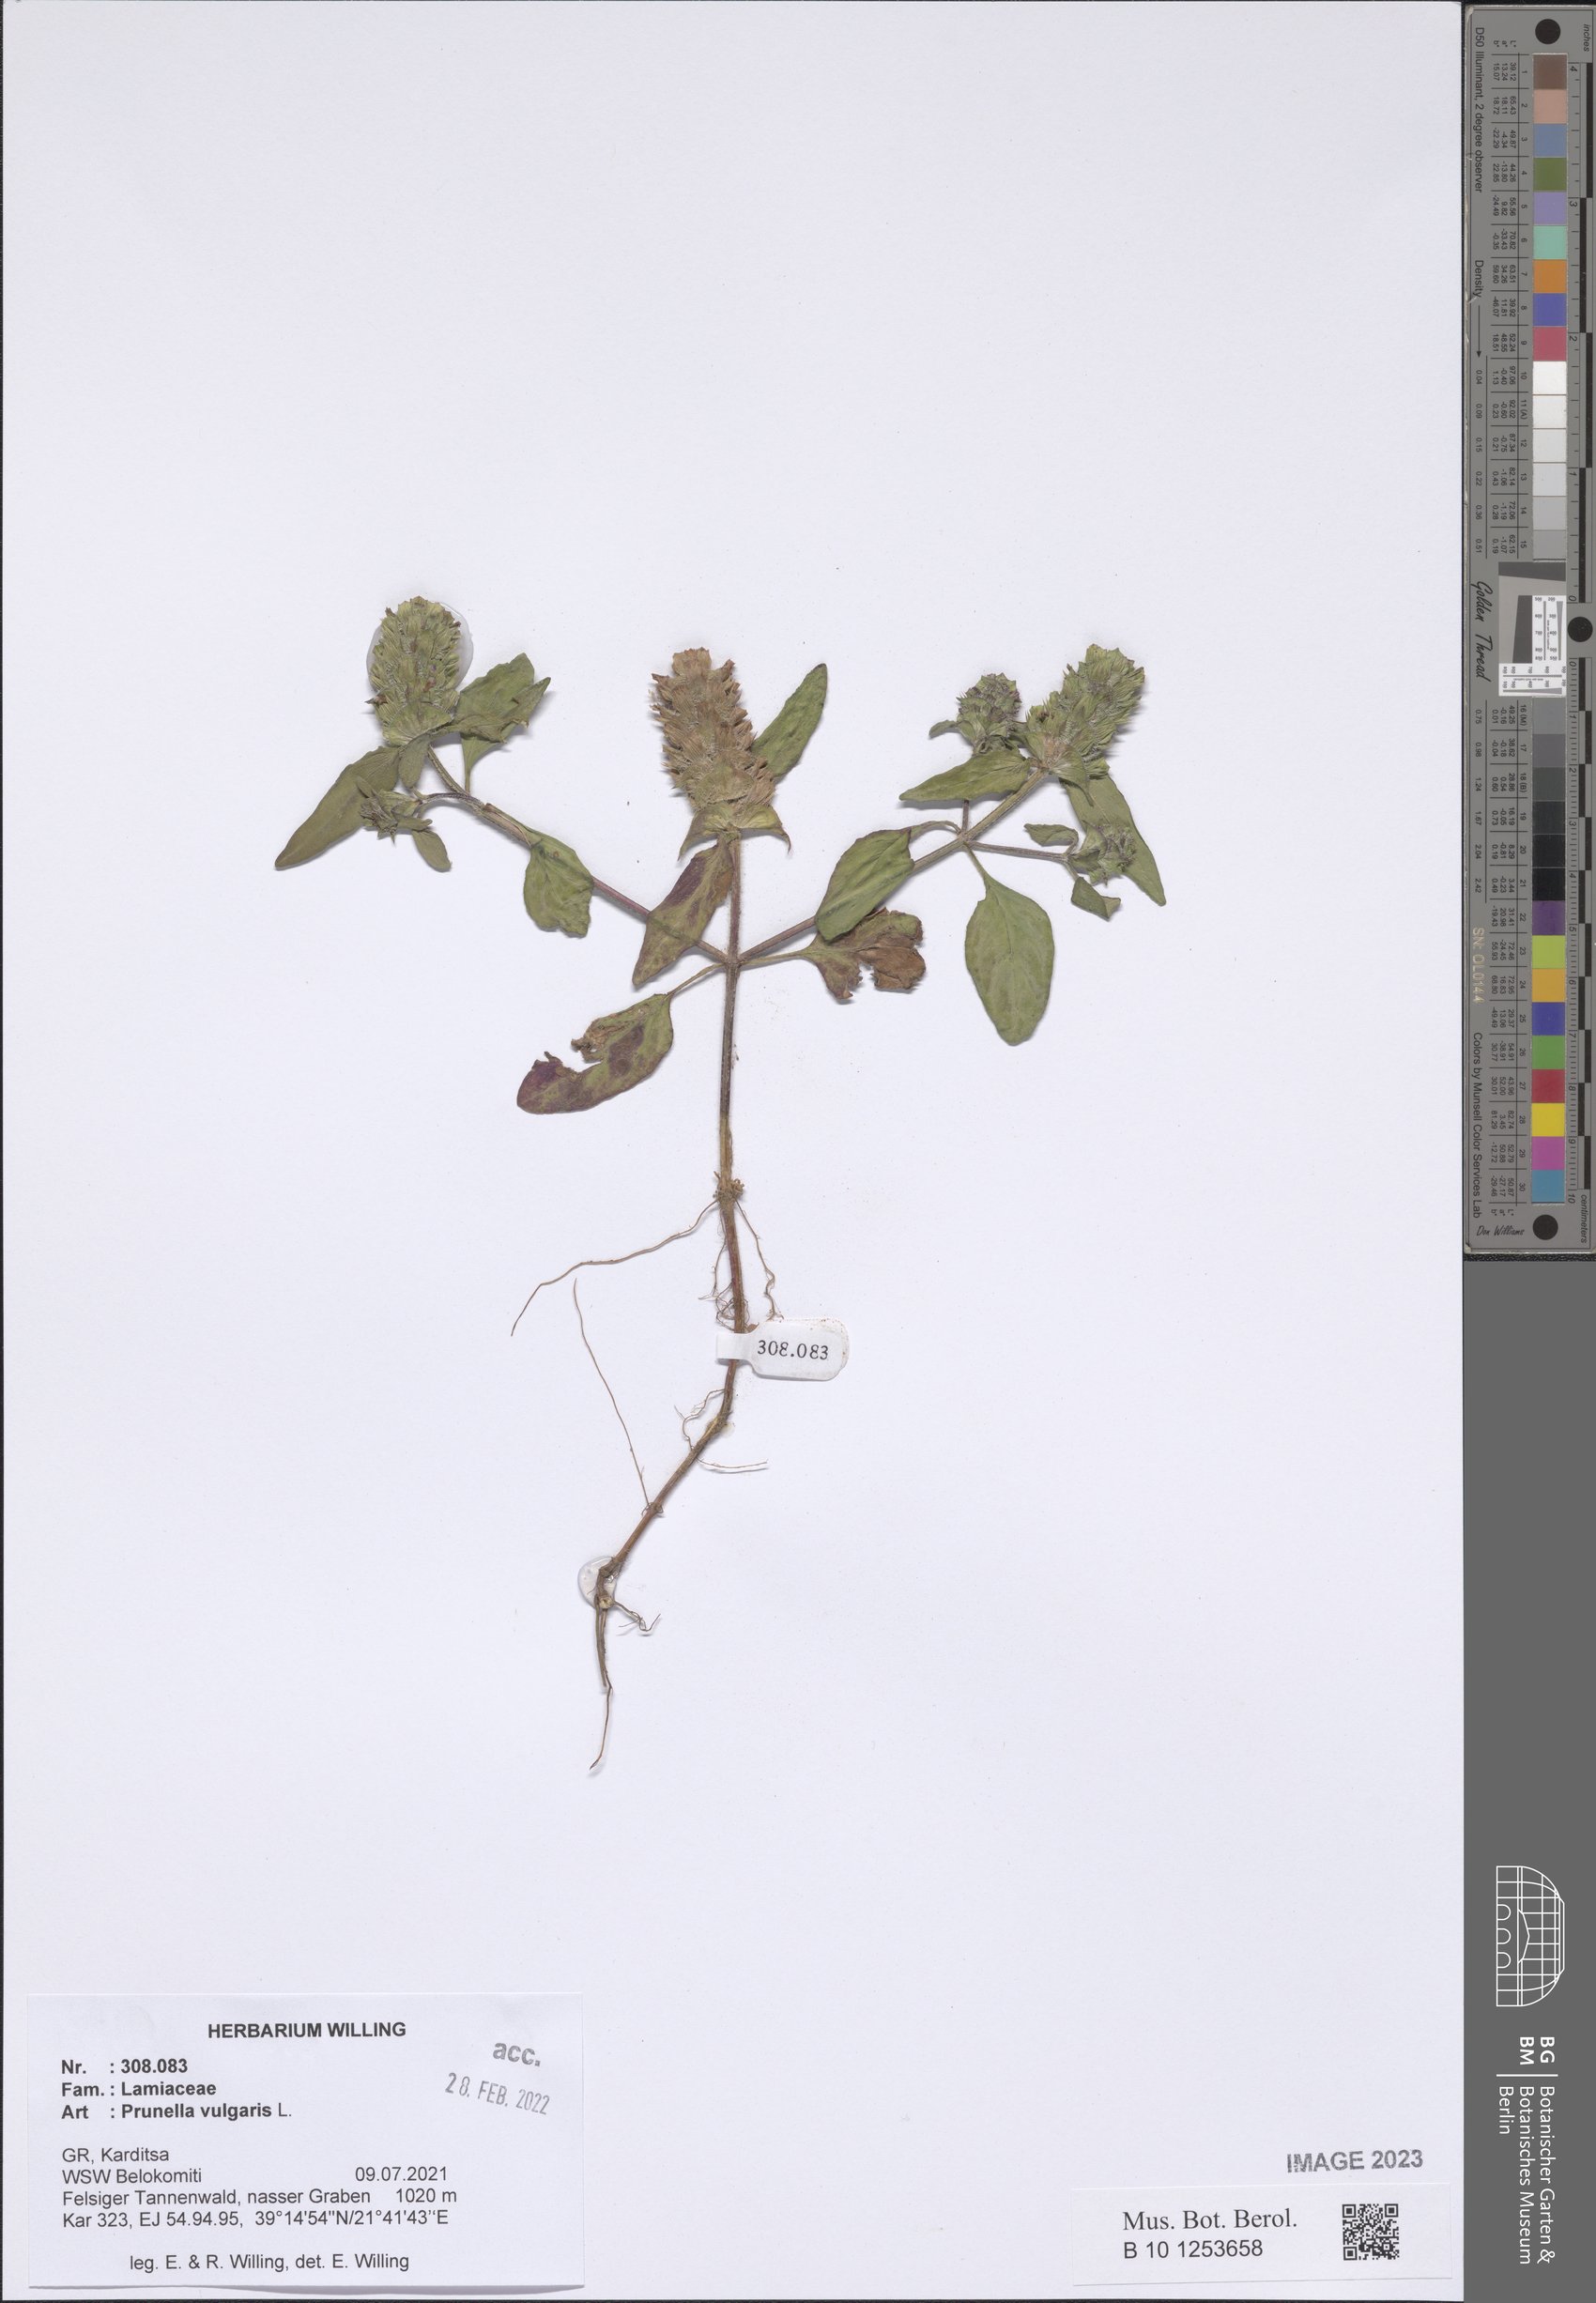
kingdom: Plantae
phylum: Tracheophyta
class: Magnoliopsida
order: Lamiales
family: Lamiaceae
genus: Prunella
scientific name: Prunella vulgaris
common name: Heal-all
